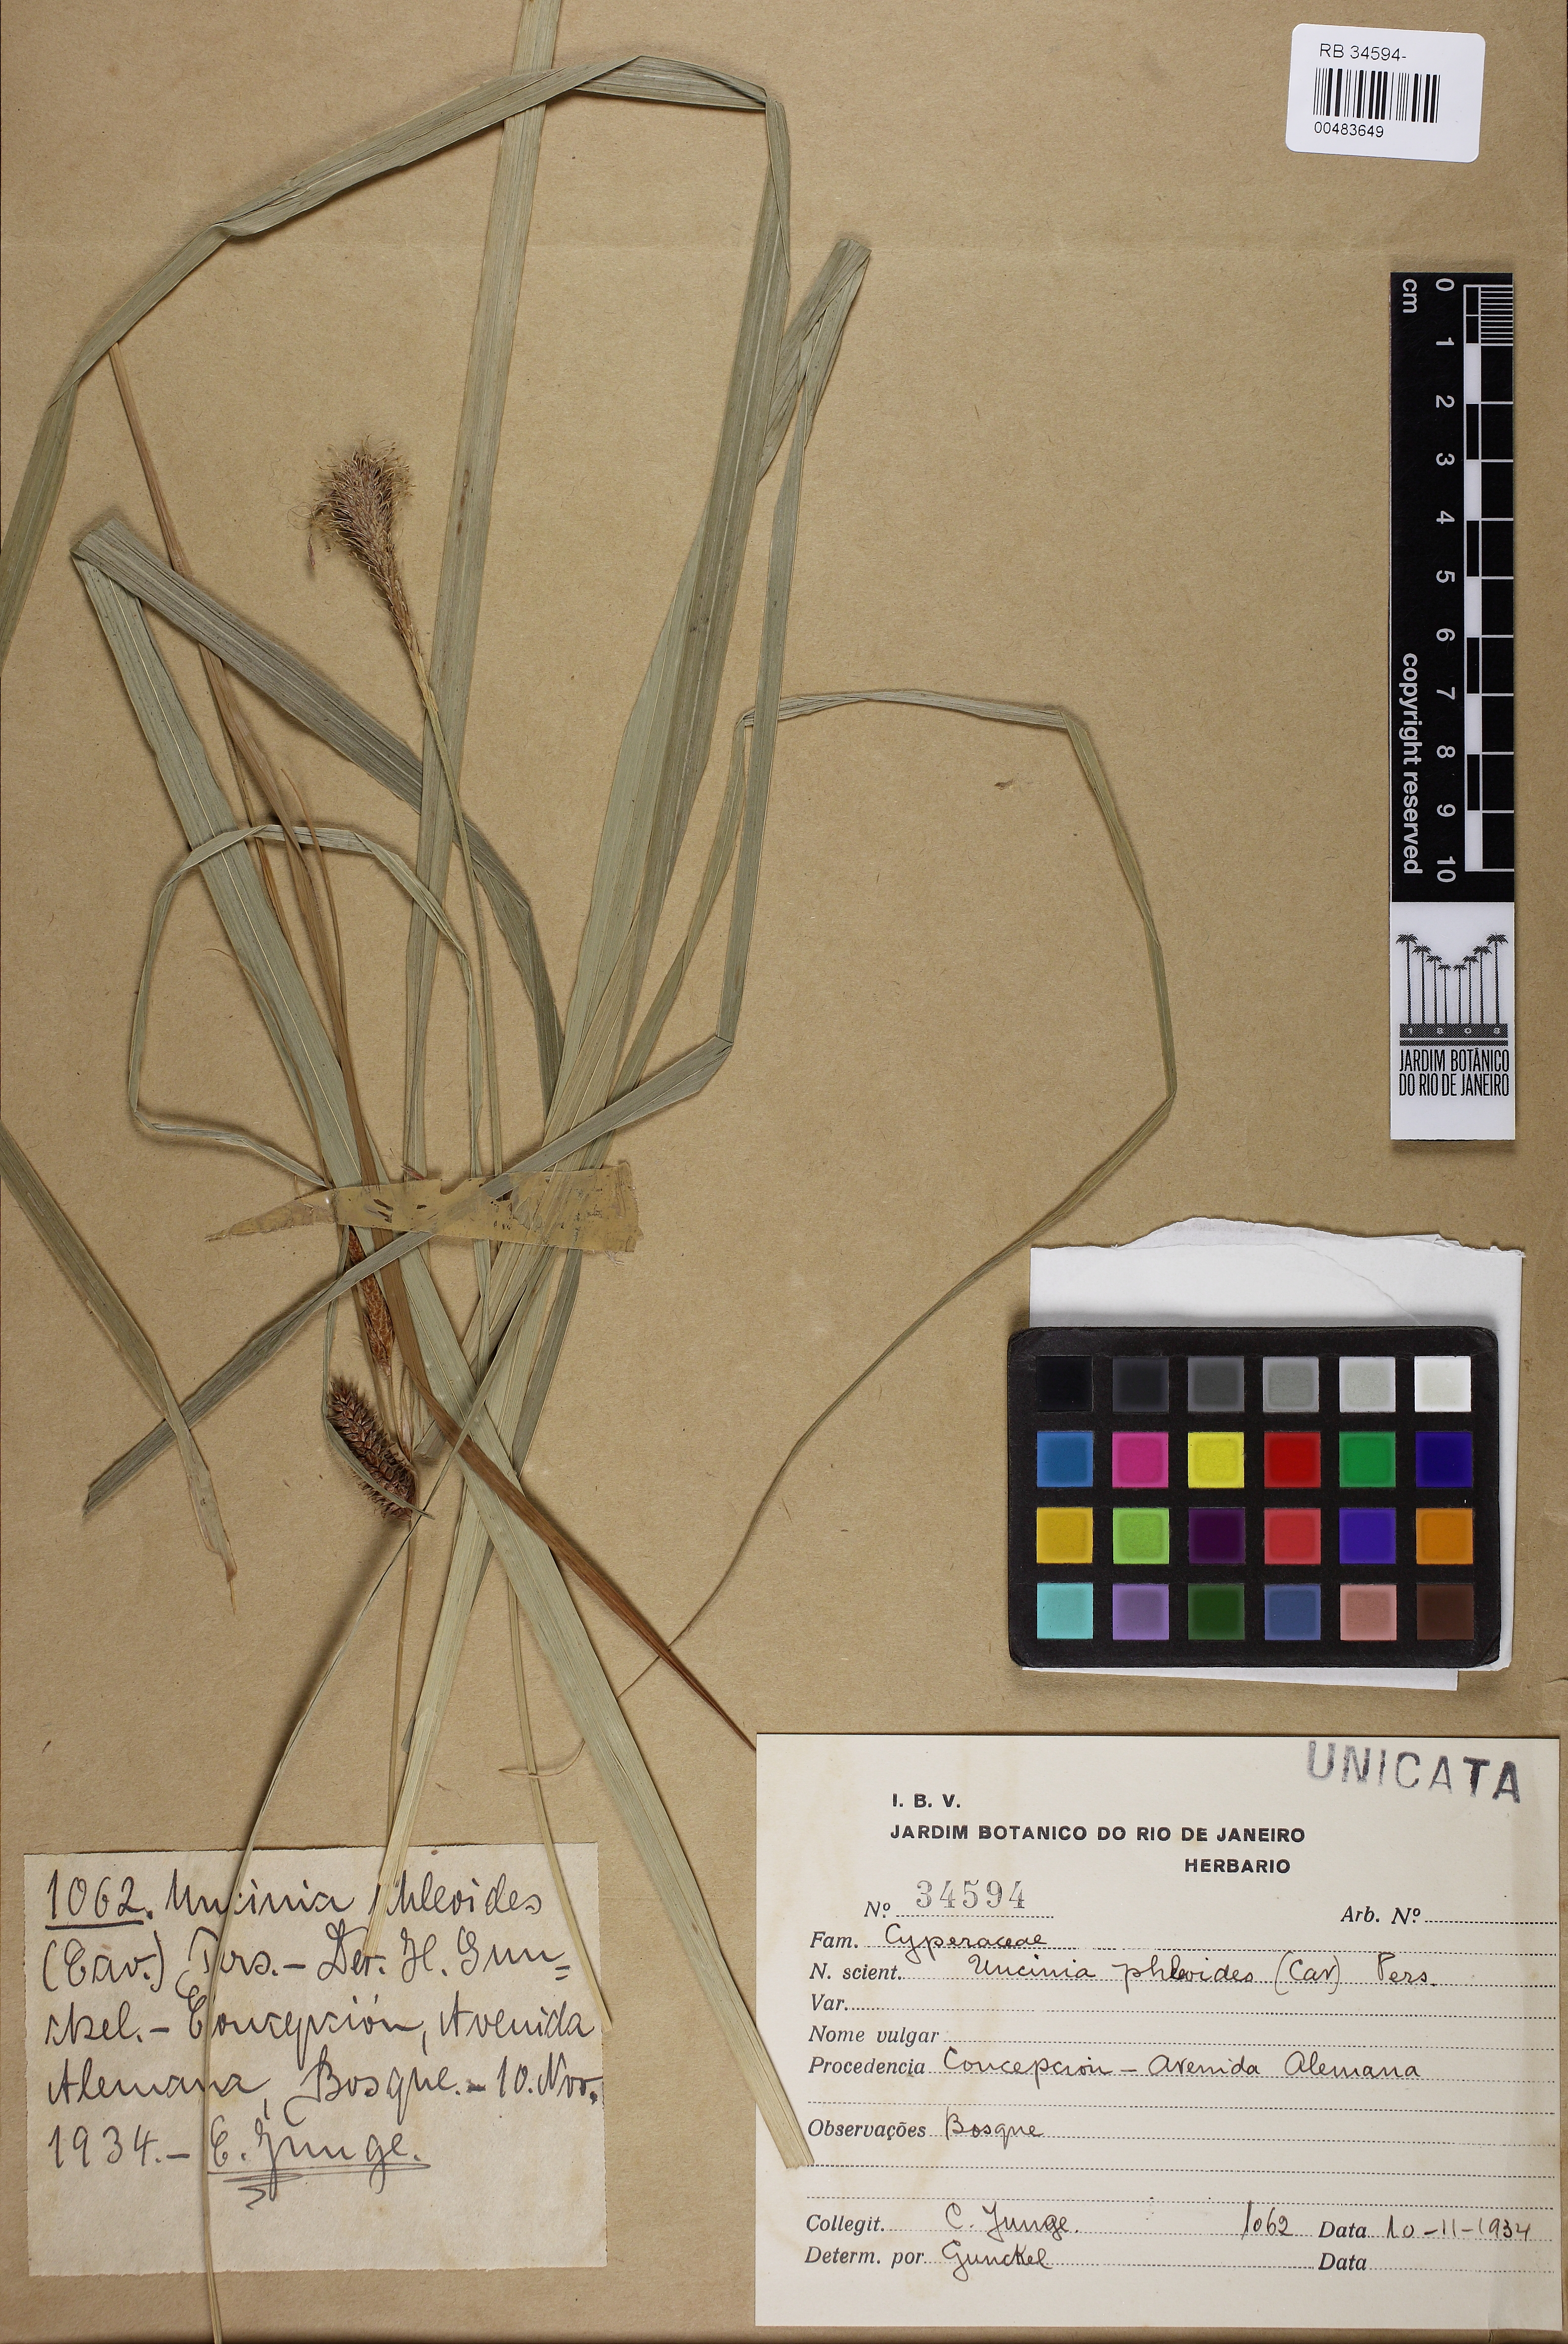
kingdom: Plantae
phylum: Tracheophyta
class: Liliopsida
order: Poales
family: Cyperaceae
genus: Carex
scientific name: Carex phalaroides
